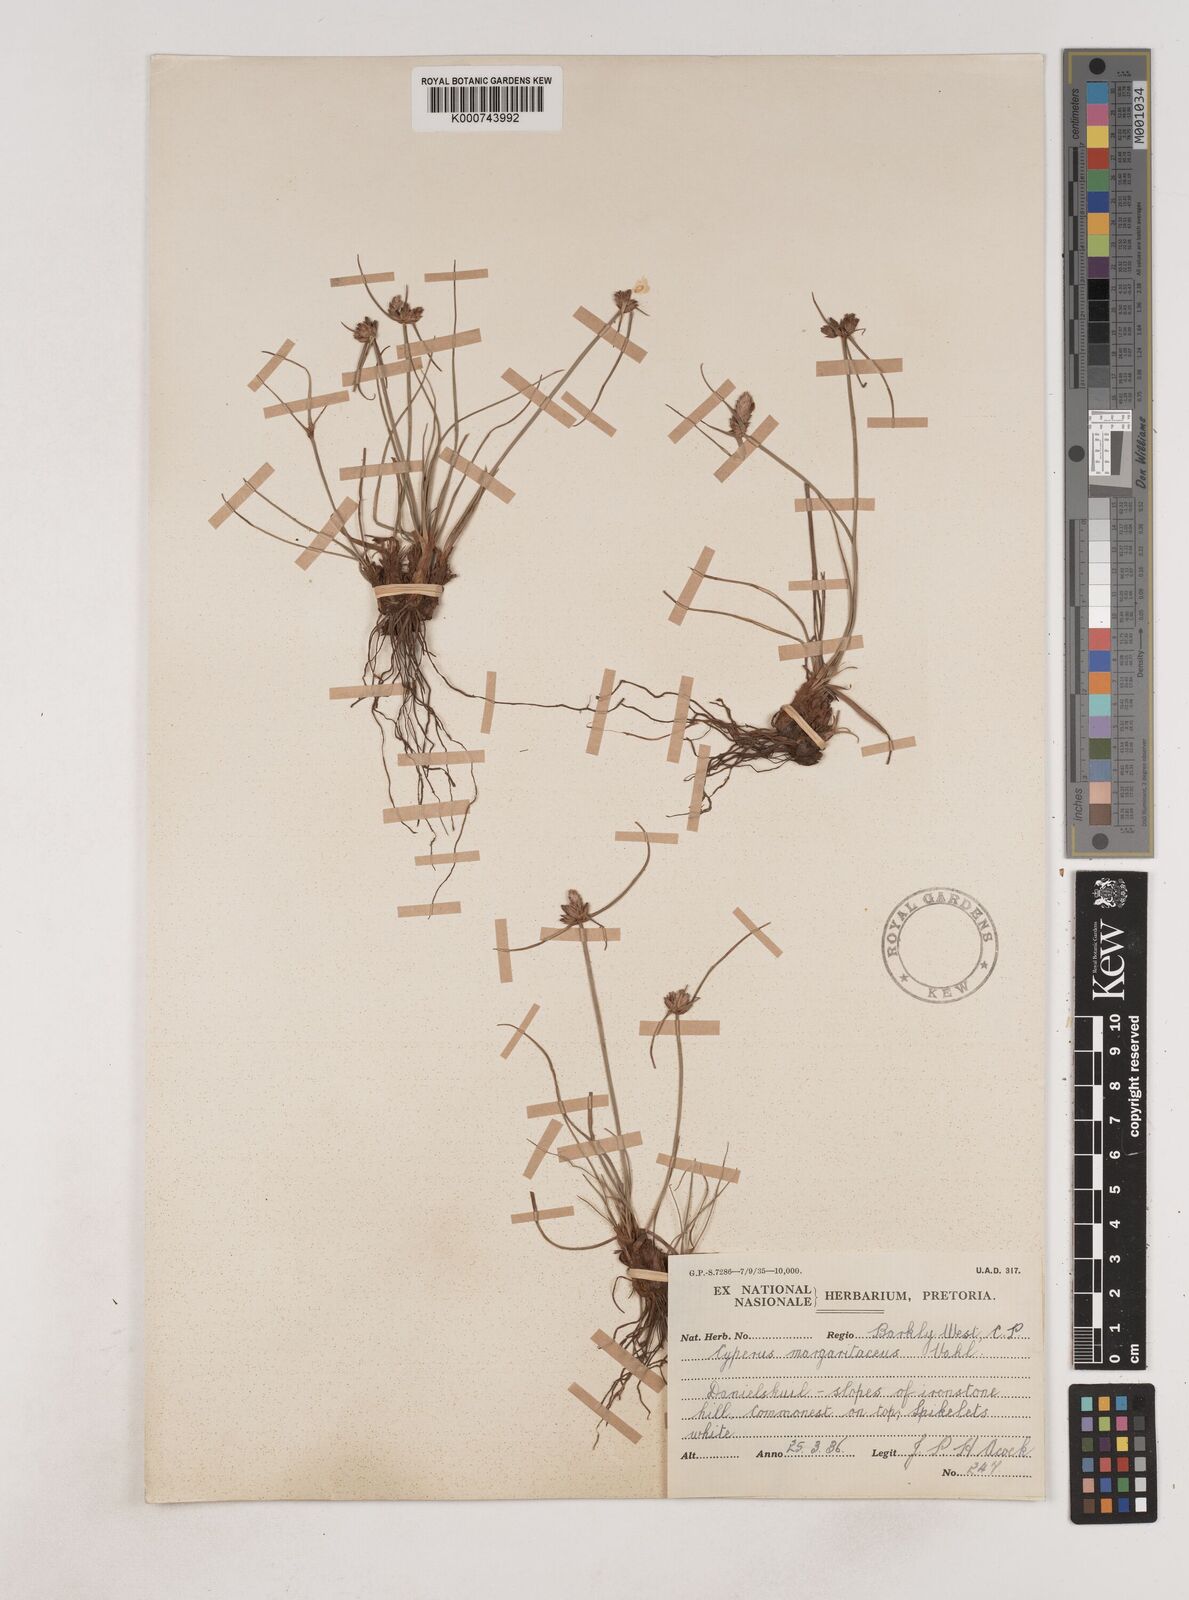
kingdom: Plantae
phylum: Tracheophyta
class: Liliopsida
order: Poales
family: Cyperaceae
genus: Cyperus
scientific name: Cyperus margaritaceus
